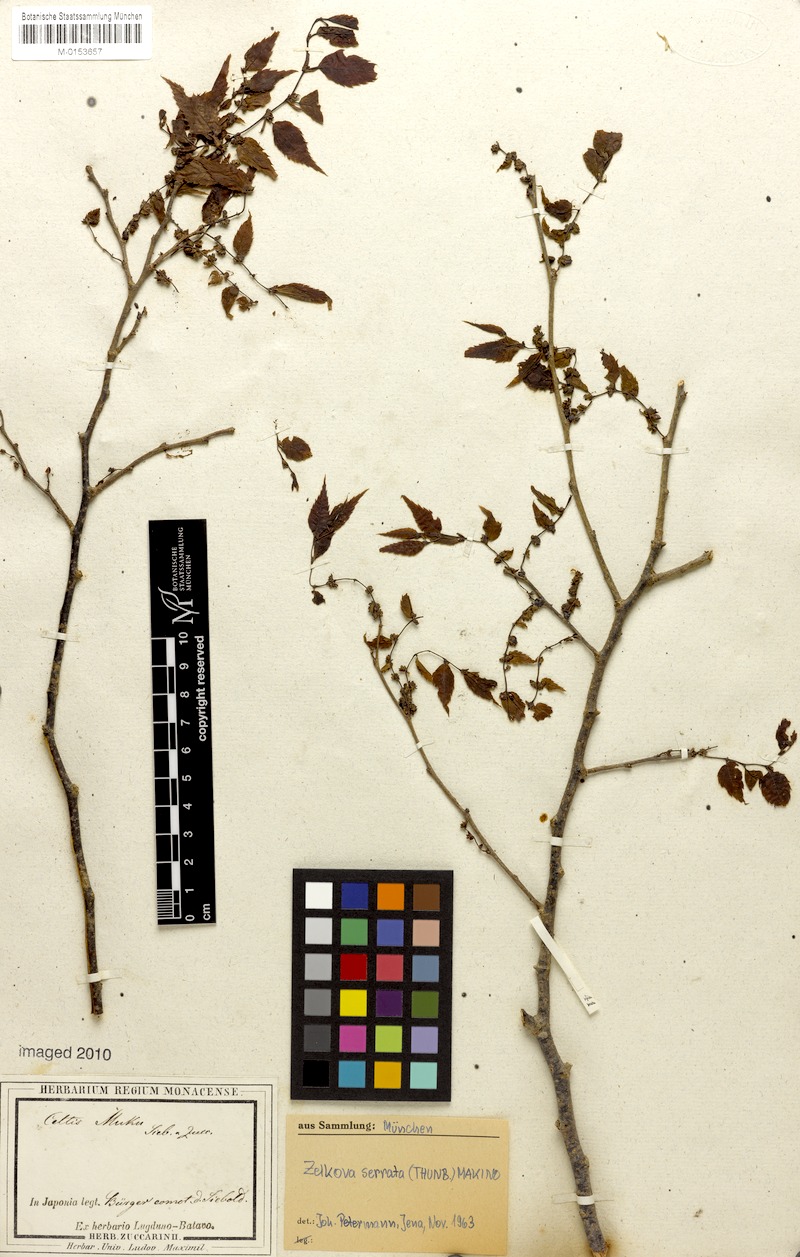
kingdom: Plantae
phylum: Tracheophyta
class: Magnoliopsida
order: Rosales
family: Ulmaceae
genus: Zelkova
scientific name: Zelkova serrata
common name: Japanese zelkova
